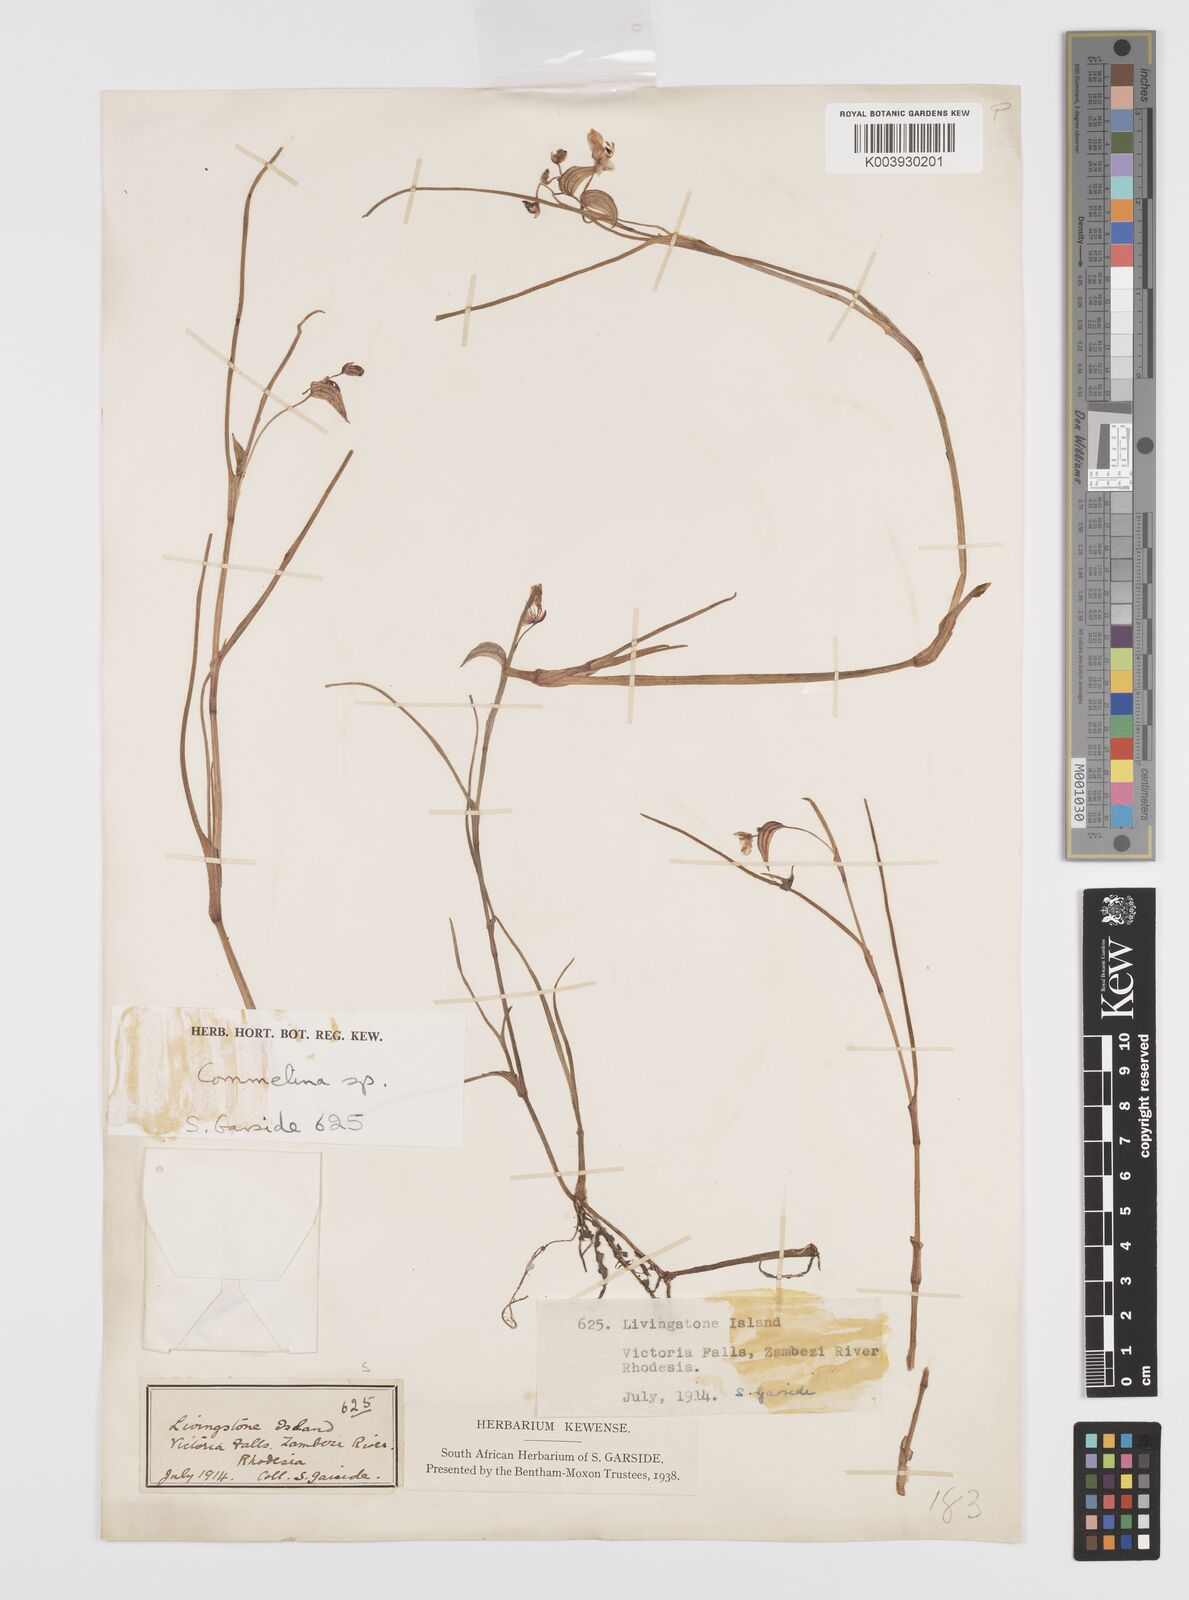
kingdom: Plantae
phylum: Tracheophyta
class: Liliopsida
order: Commelinales
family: Commelinaceae
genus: Commelina
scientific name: Commelina fluviatilis
